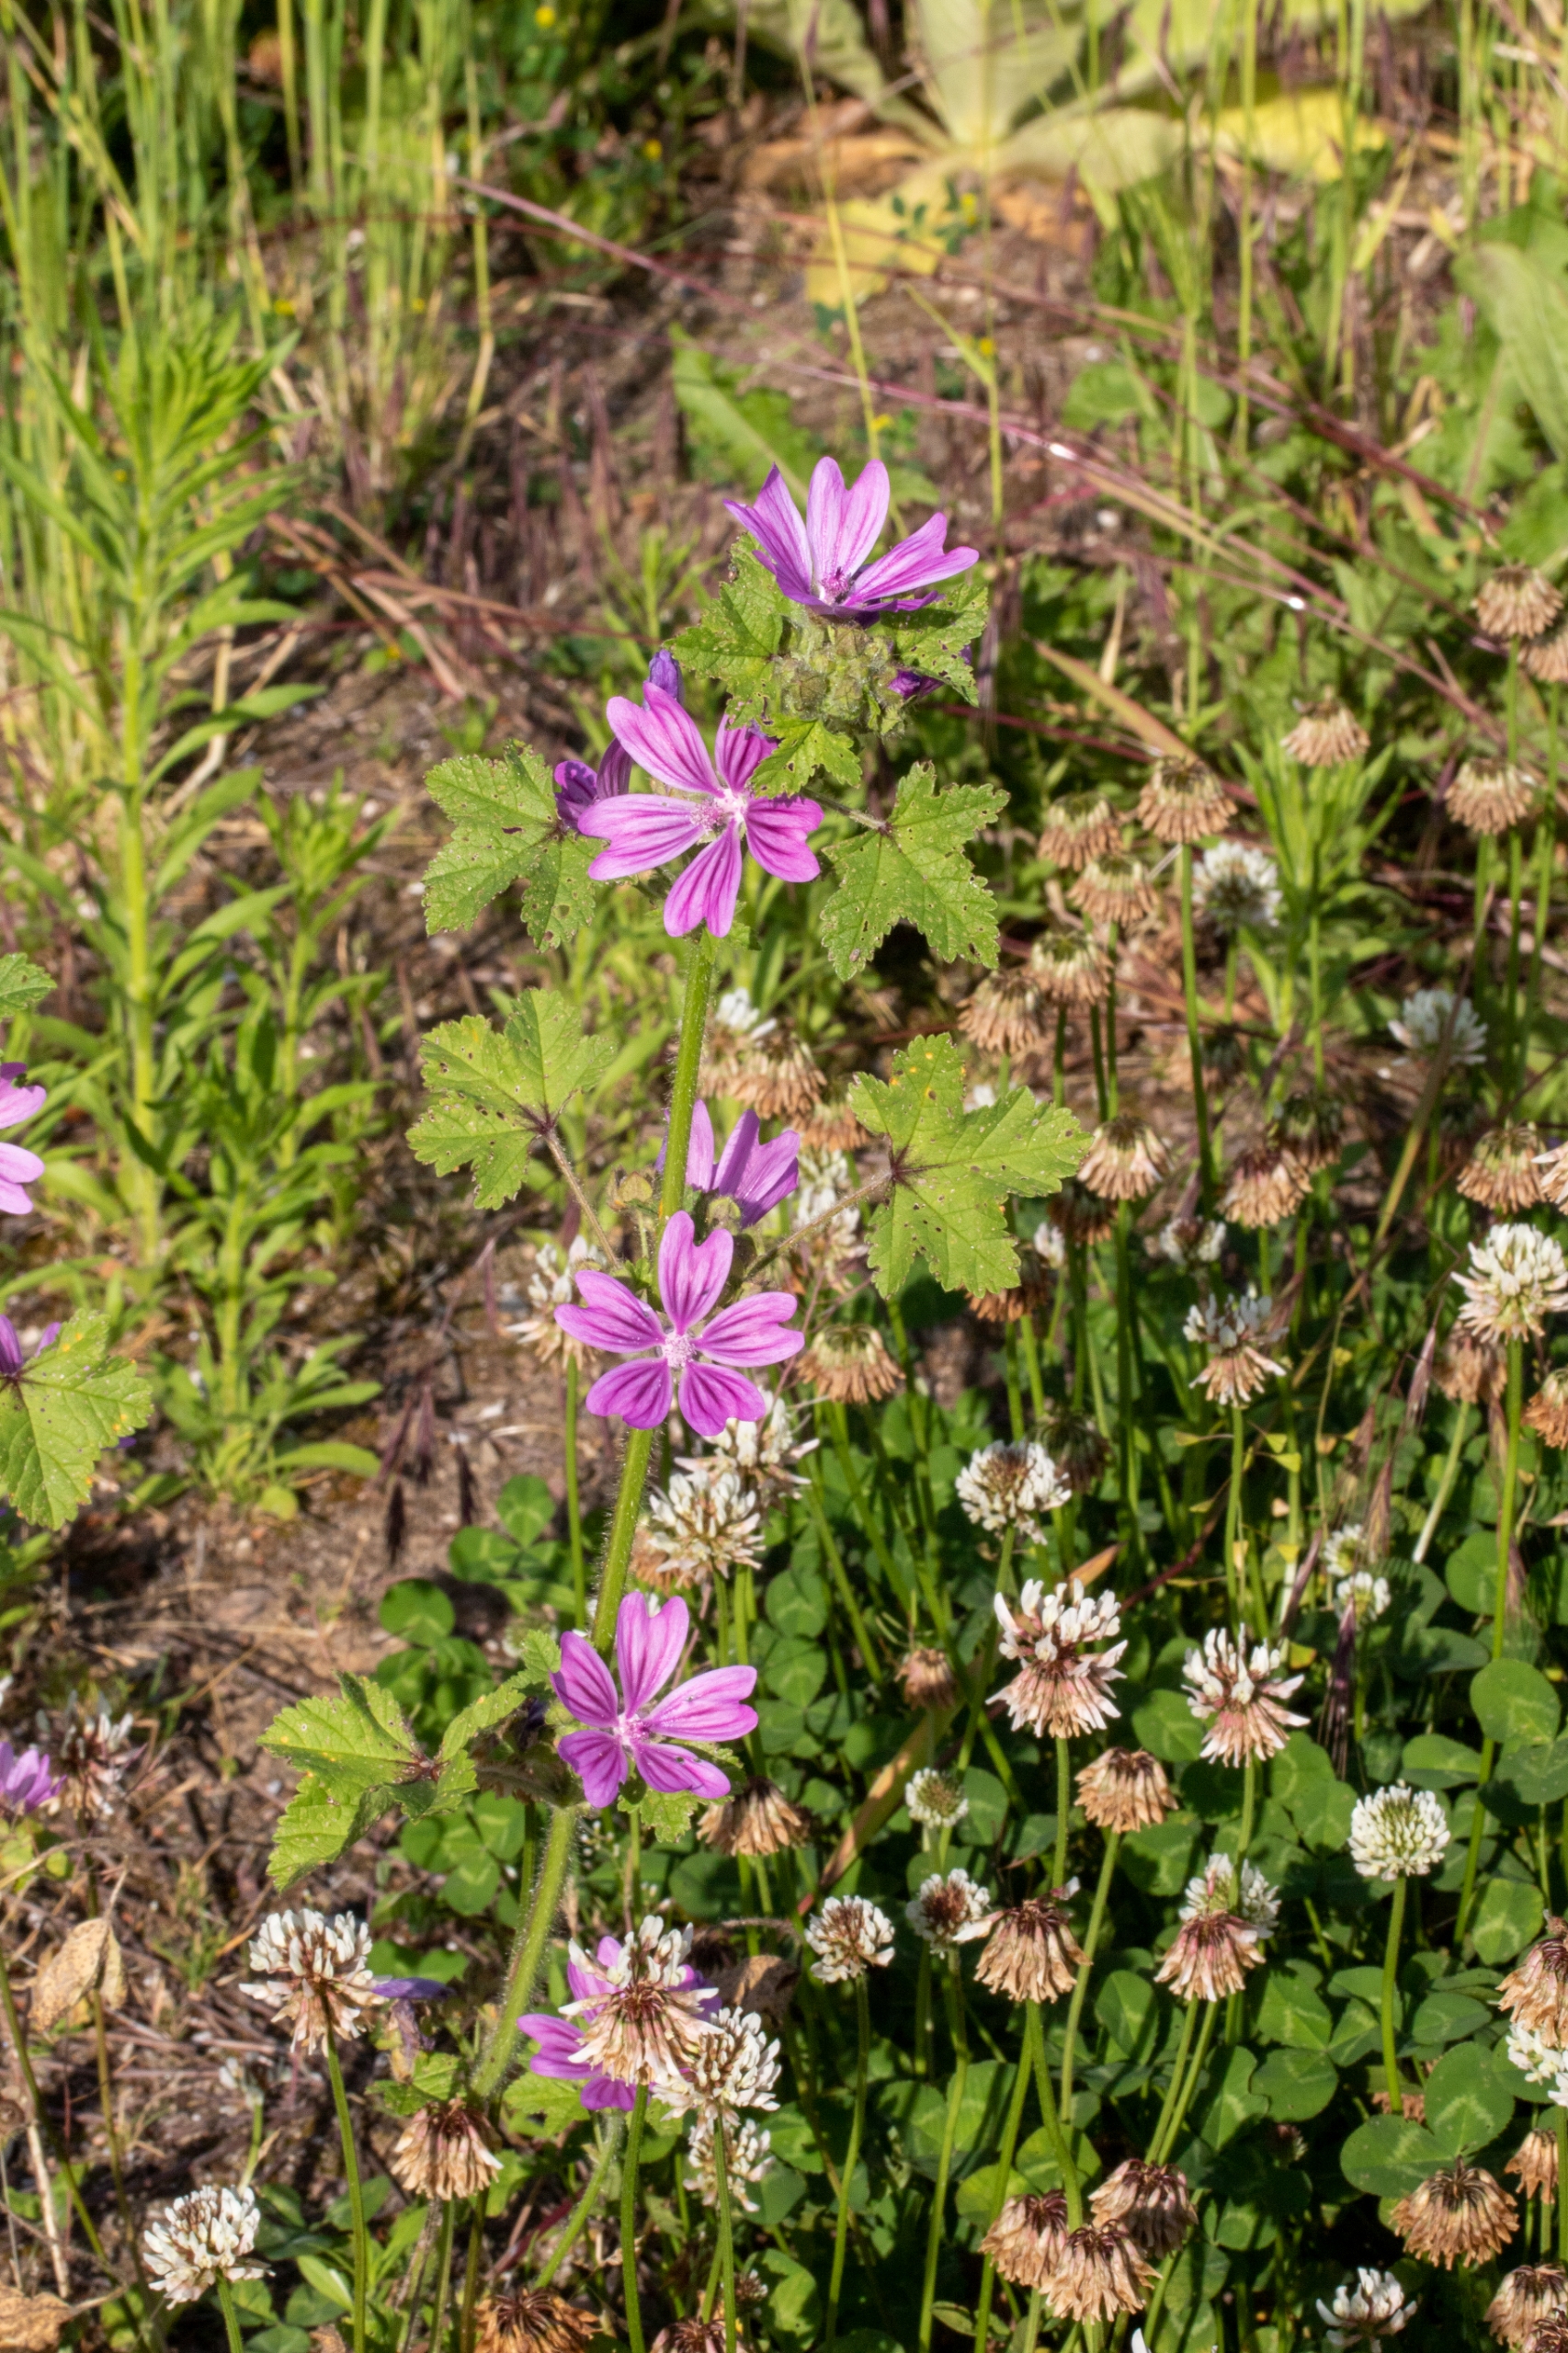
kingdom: Plantae
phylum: Tracheophyta
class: Magnoliopsida
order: Malvales
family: Malvaceae
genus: Malva
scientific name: Malva sylvestris
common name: Almindelig katost
